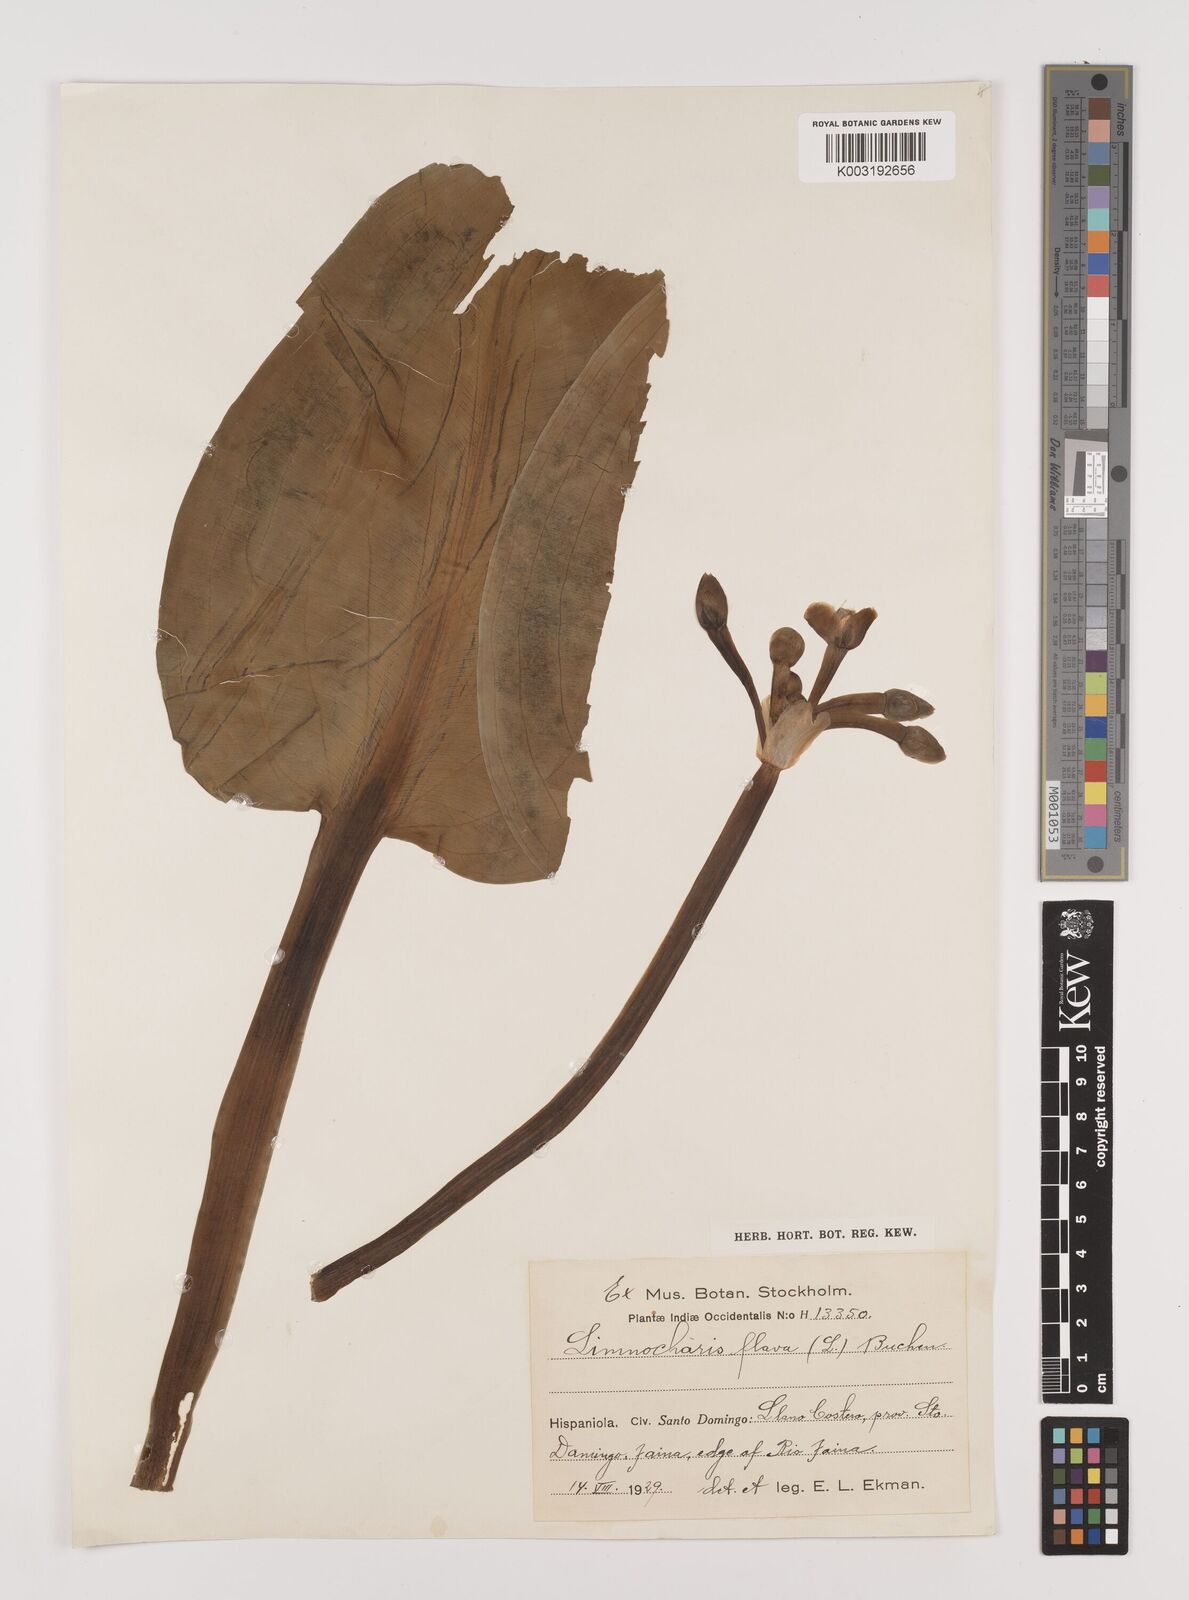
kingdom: Plantae
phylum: Tracheophyta
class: Liliopsida
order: Alismatales
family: Alismataceae
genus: Limnocharis
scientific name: Limnocharis flava
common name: Sawah-flower-rush
